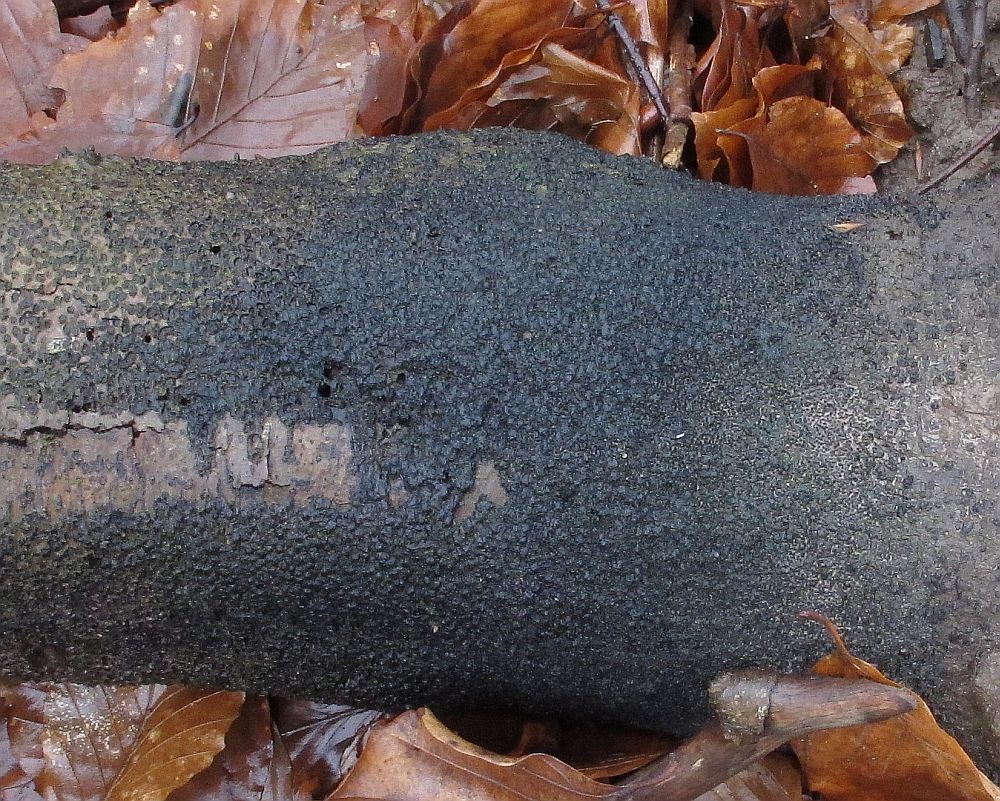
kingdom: Fungi
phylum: Ascomycota
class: Sordariomycetes
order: Xylariales
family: Melogrammataceae
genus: Melogramma
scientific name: Melogramma spiniferum
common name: bøgefod-kulhals
